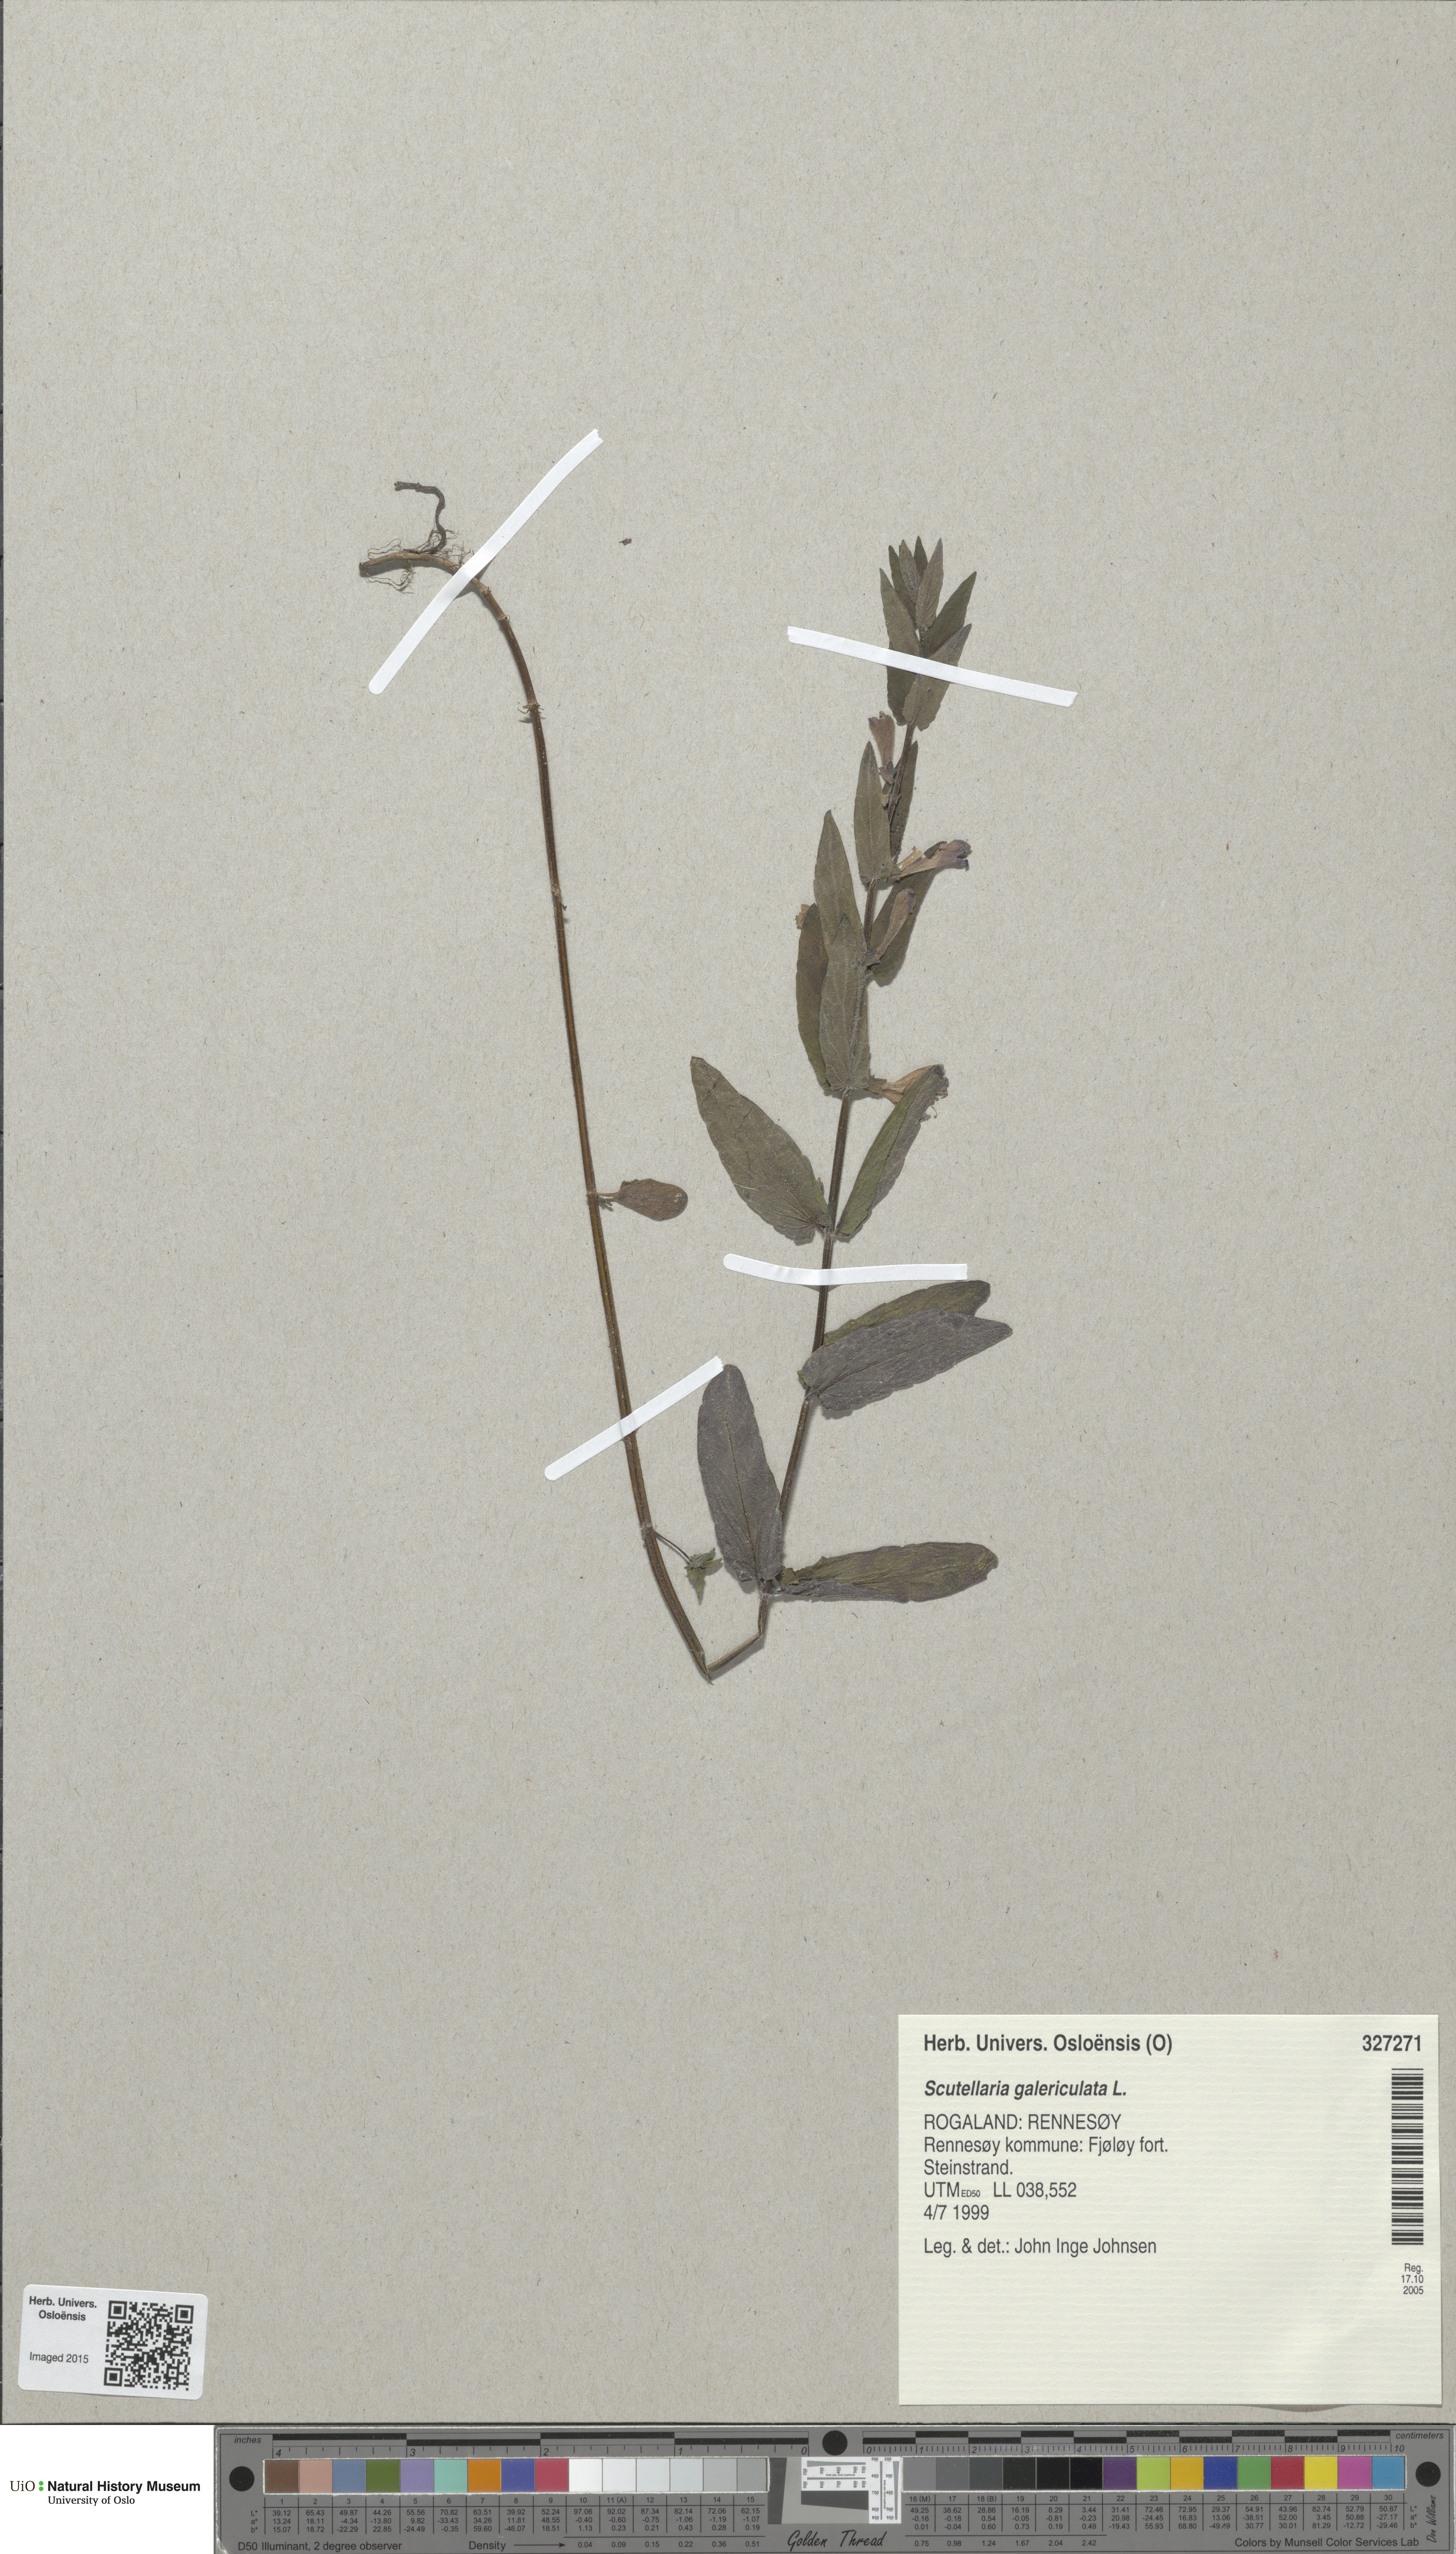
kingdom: Plantae
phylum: Tracheophyta
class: Magnoliopsida
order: Lamiales
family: Lamiaceae
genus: Scutellaria
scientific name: Scutellaria galericulata
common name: Skullcap
